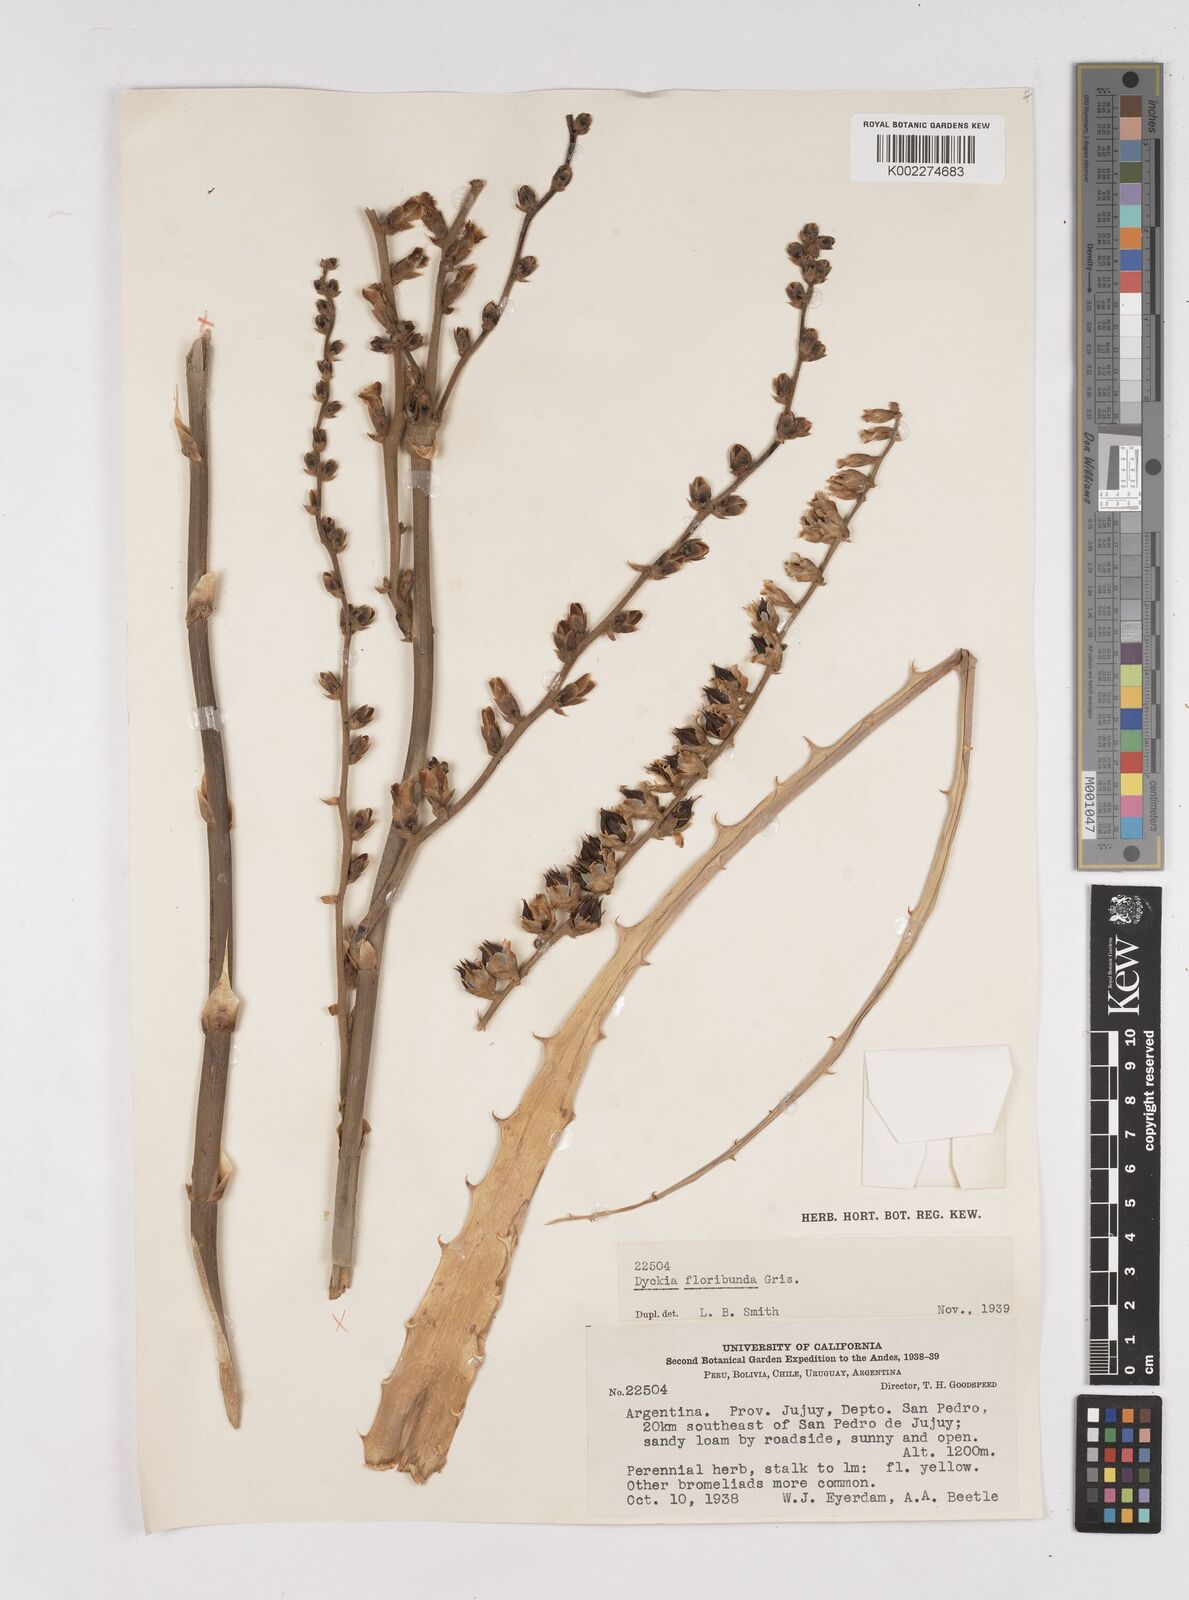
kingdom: Plantae
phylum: Tracheophyta
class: Liliopsida
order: Poales
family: Bromeliaceae
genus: Dyckia
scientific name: Dyckia floribunda
